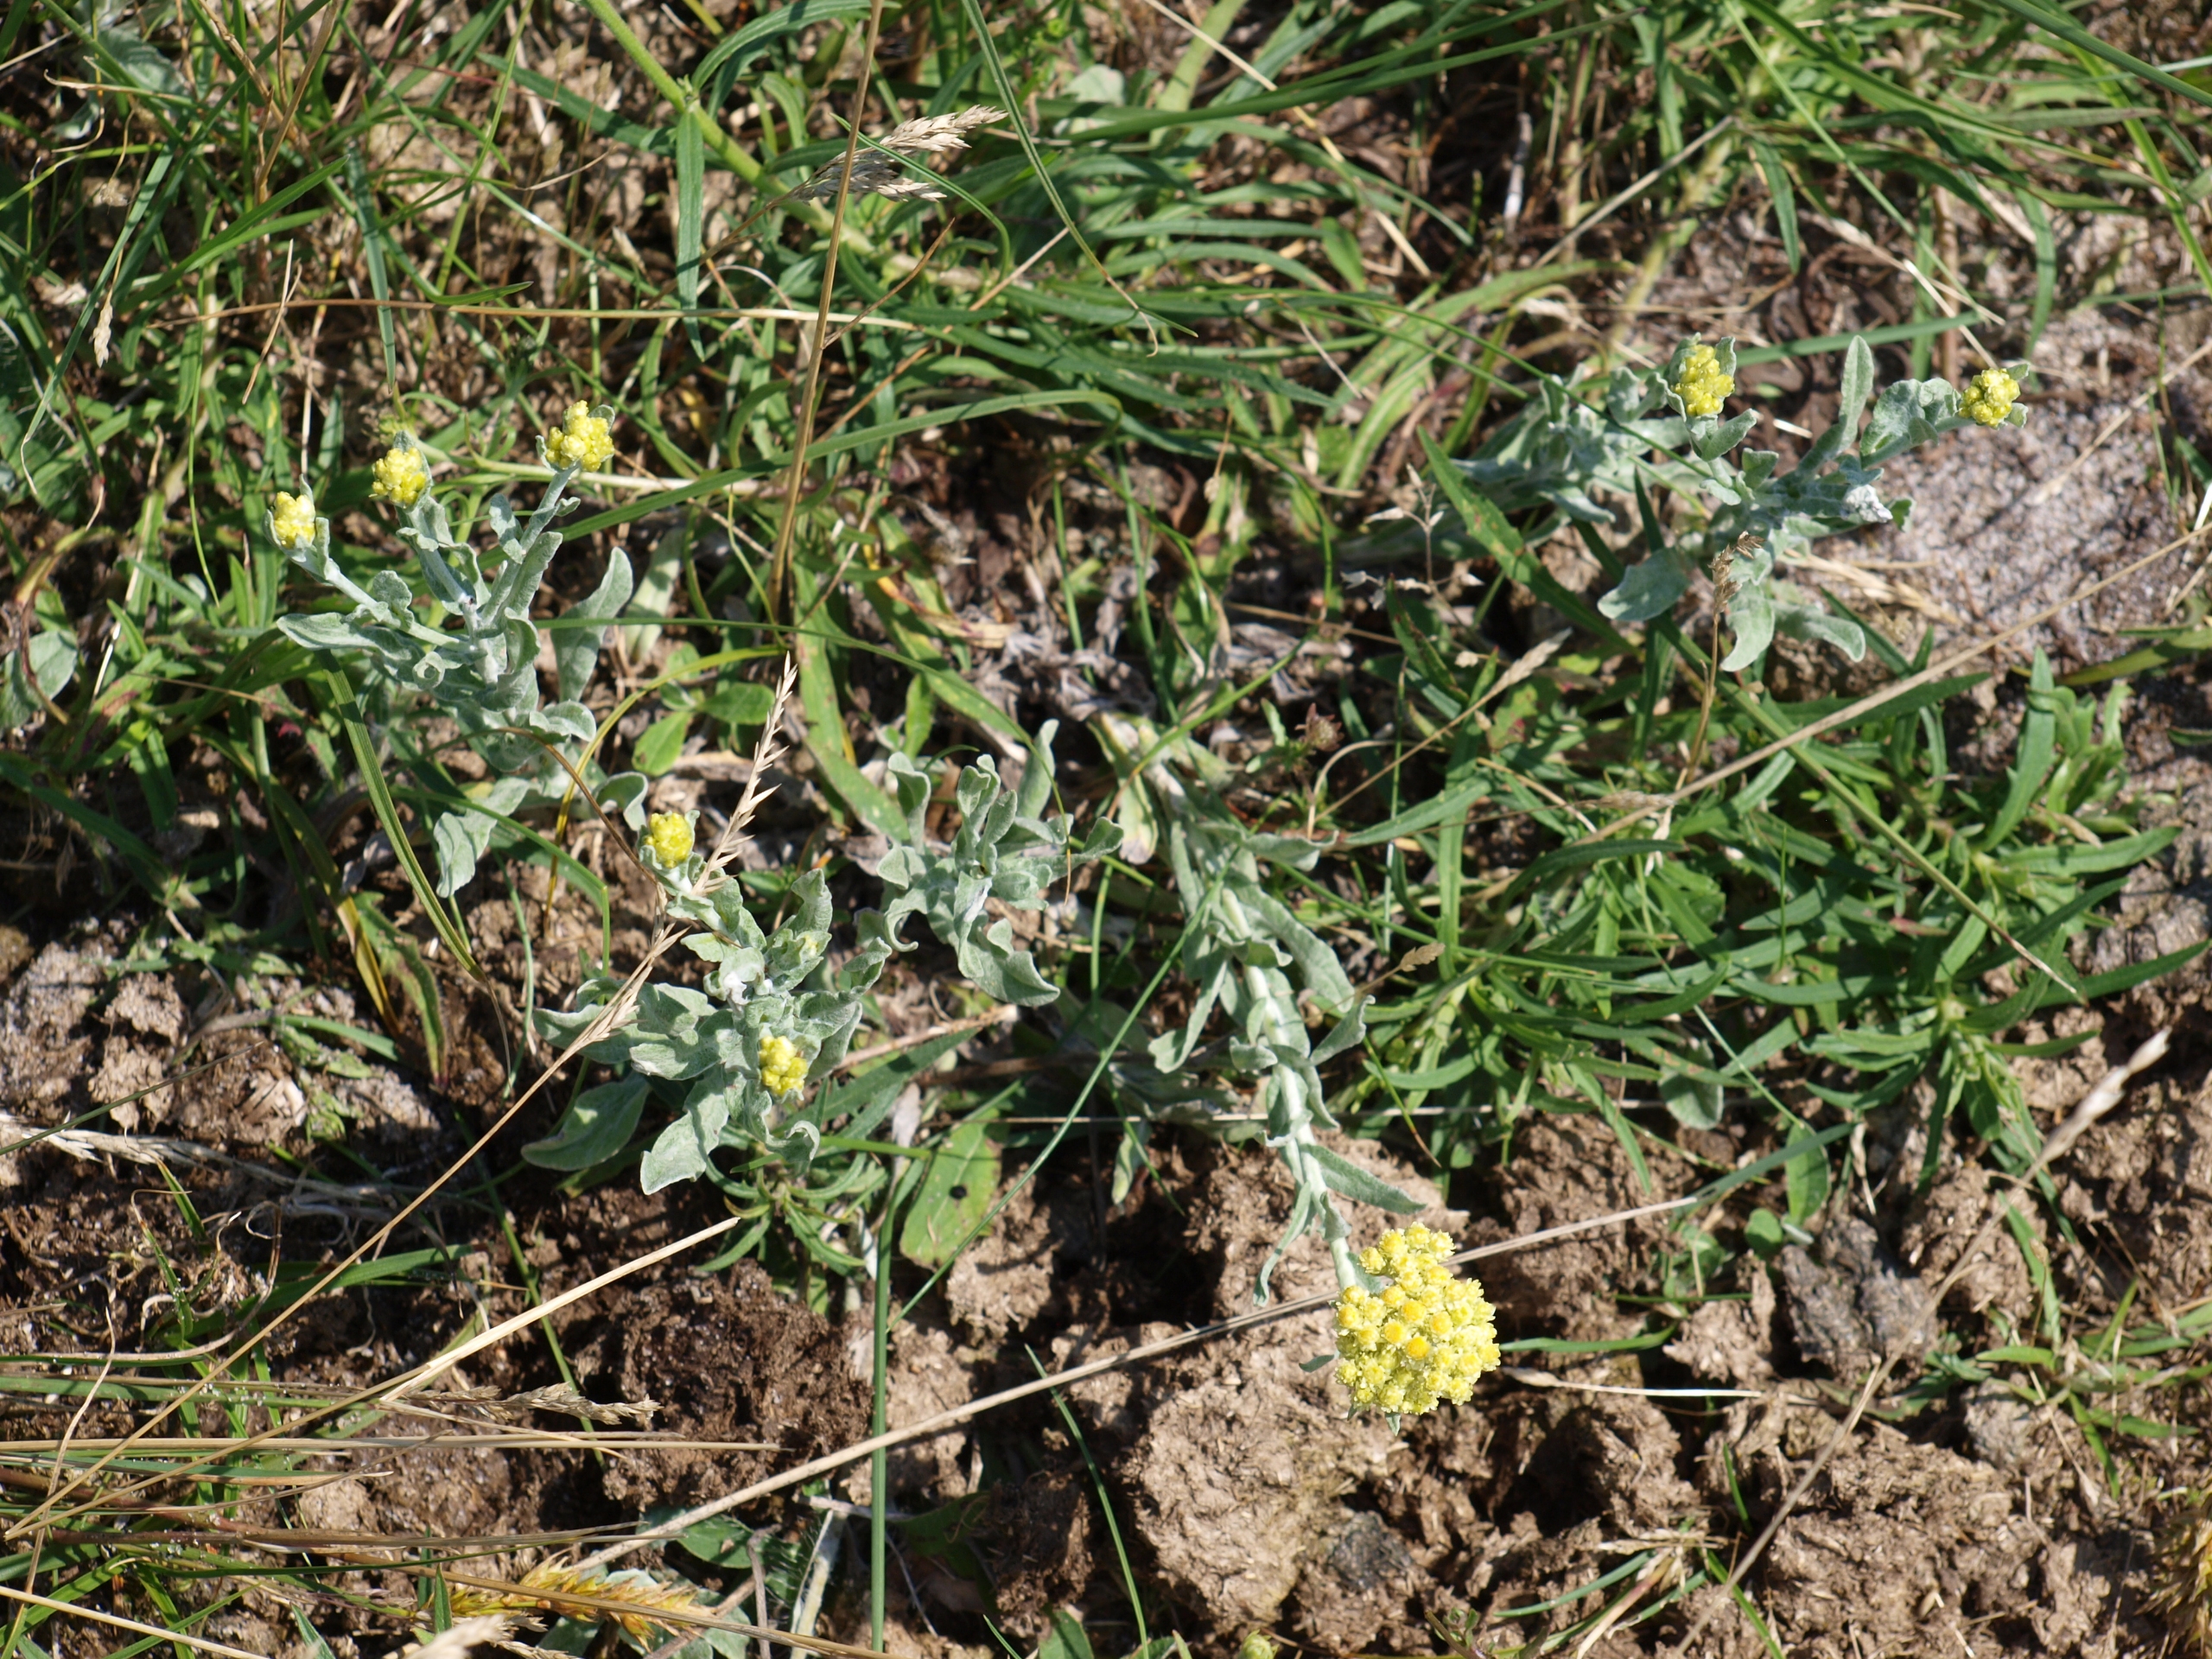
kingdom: Plantae
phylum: Tracheophyta
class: Magnoliopsida
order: Asterales
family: Asteraceae
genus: Helichrysum
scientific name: Helichrysum arenarium
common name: Gul evighedsblomst
